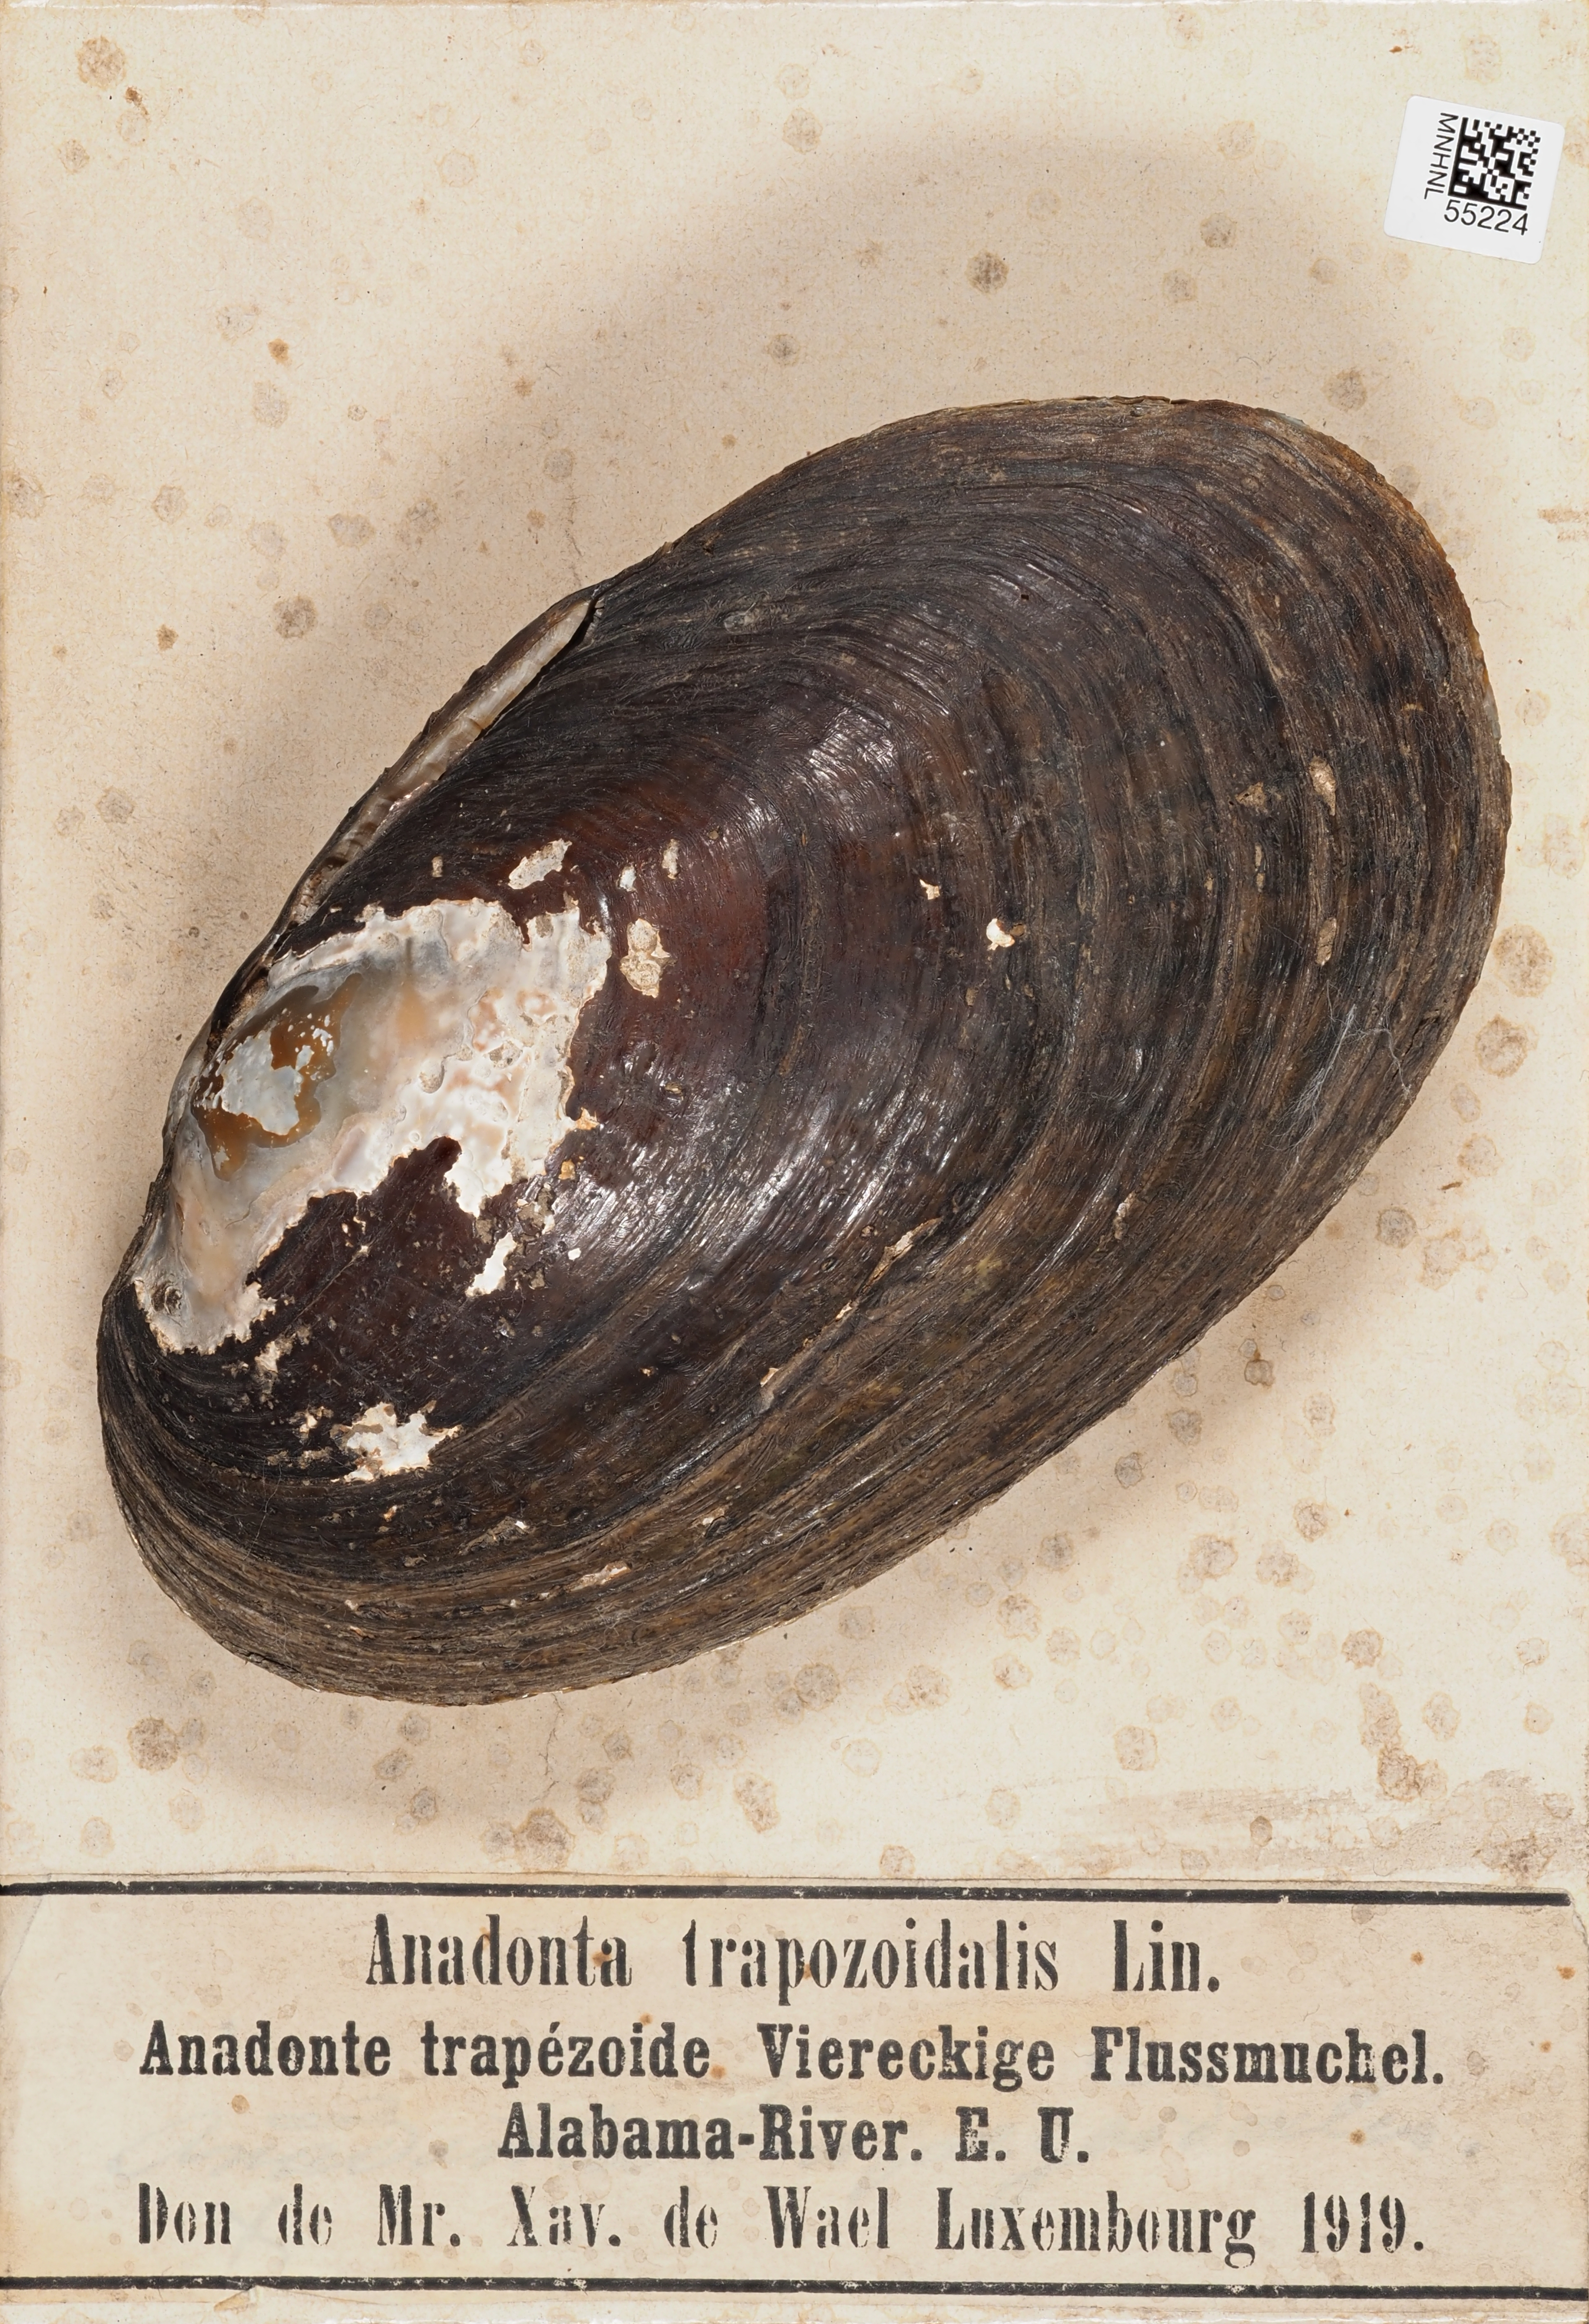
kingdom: Animalia
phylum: Mollusca
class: Bivalvia
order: Unionida
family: Unionidae
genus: Anodonta
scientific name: Anodonta
